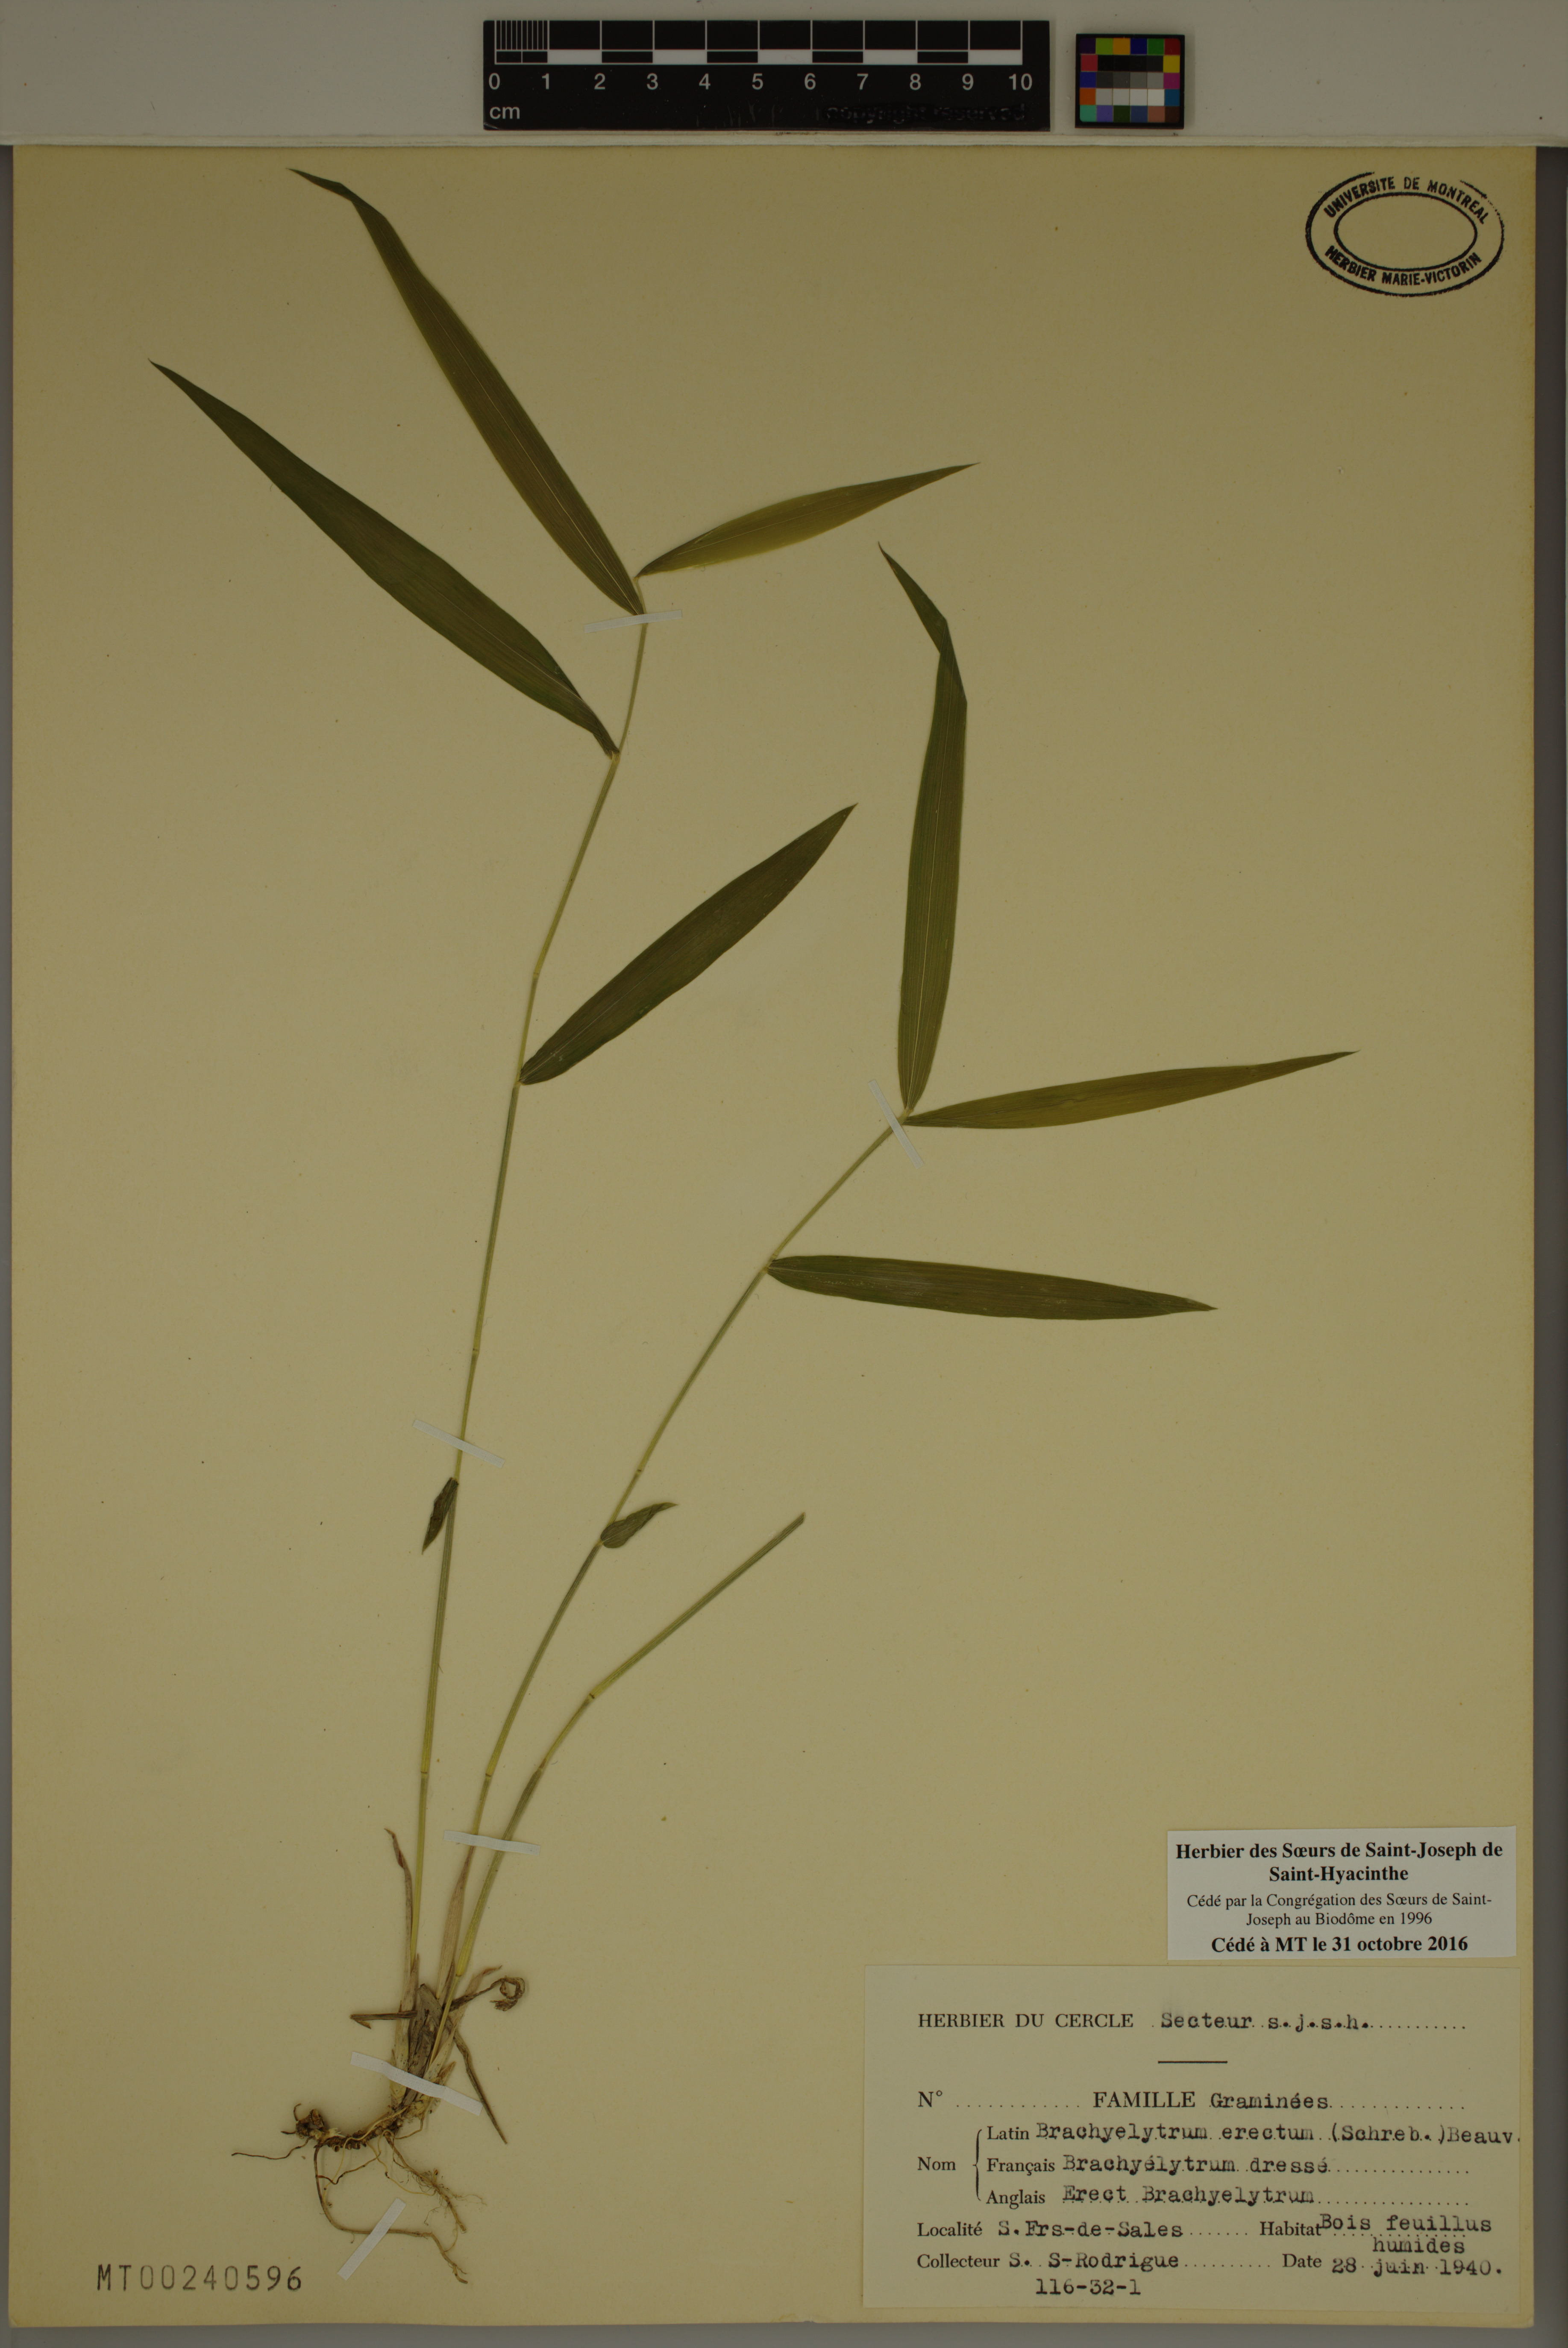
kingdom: Plantae
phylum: Tracheophyta
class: Liliopsida
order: Poales
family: Poaceae
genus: Brachyelytrum
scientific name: Brachyelytrum erectum
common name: Bearded shorthusk
